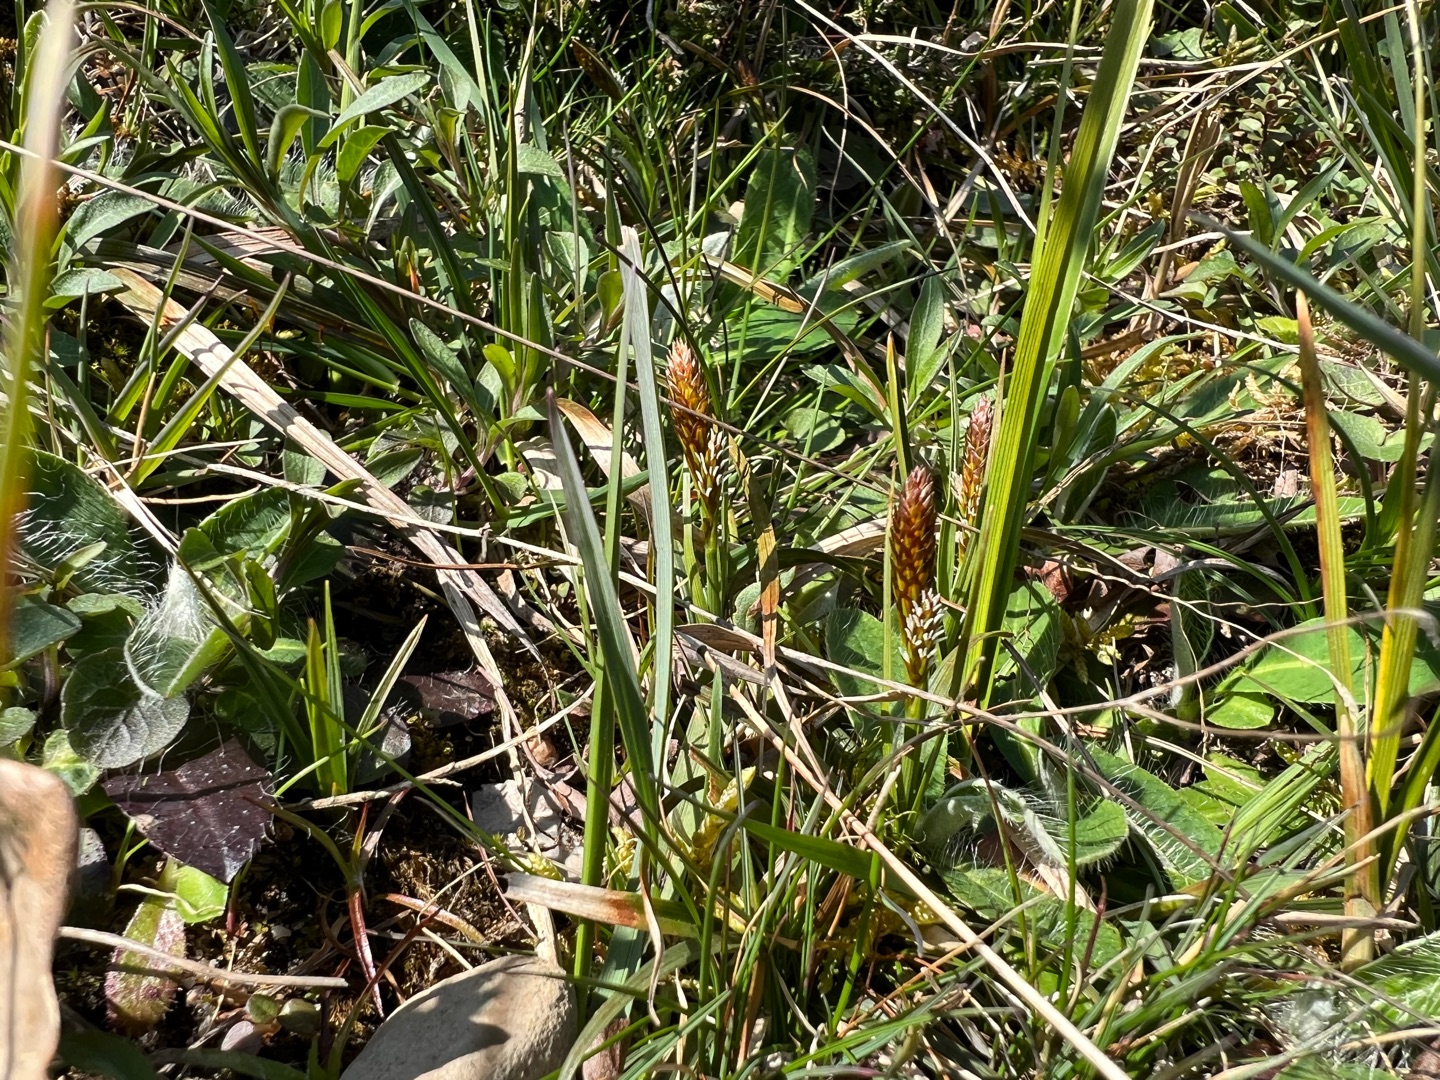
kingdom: Plantae
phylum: Tracheophyta
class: Liliopsida
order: Poales
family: Cyperaceae
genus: Carex
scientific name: Carex caryophyllea
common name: Vår-star
